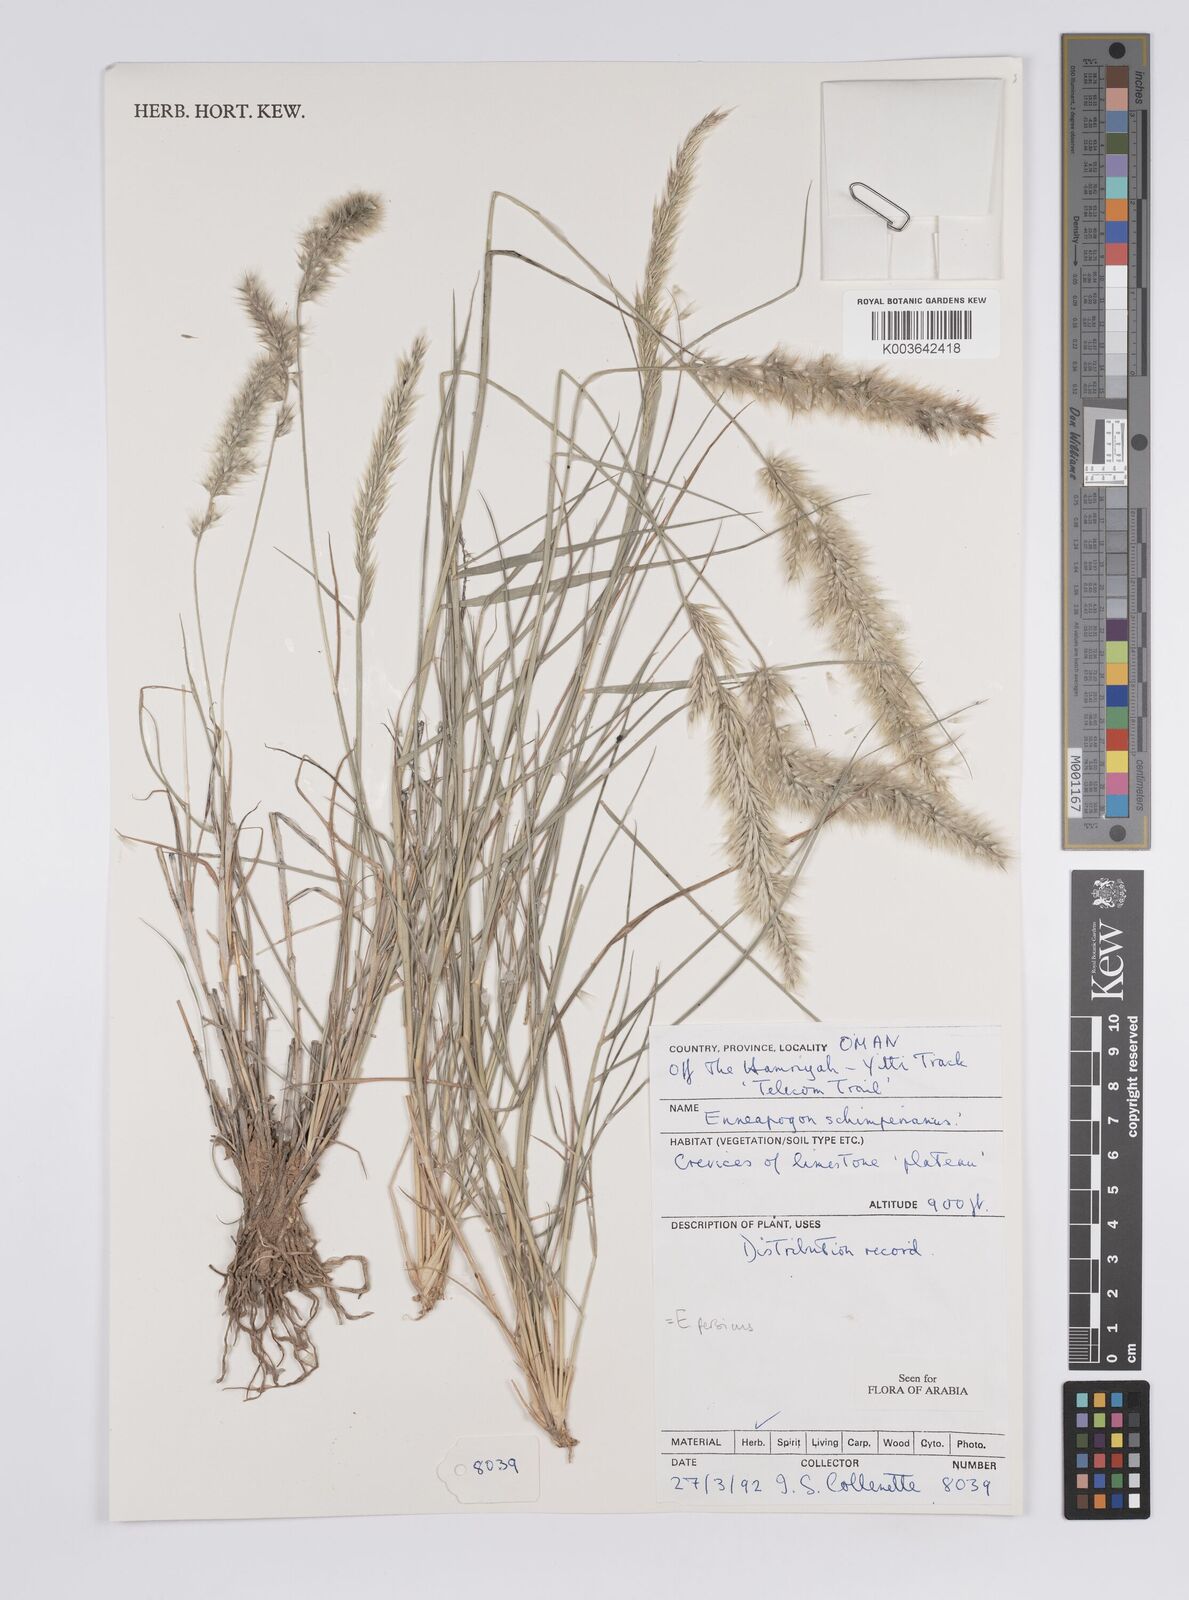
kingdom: Plantae
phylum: Tracheophyta
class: Liliopsida
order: Poales
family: Poaceae
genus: Enneapogon
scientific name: Enneapogon persicus
